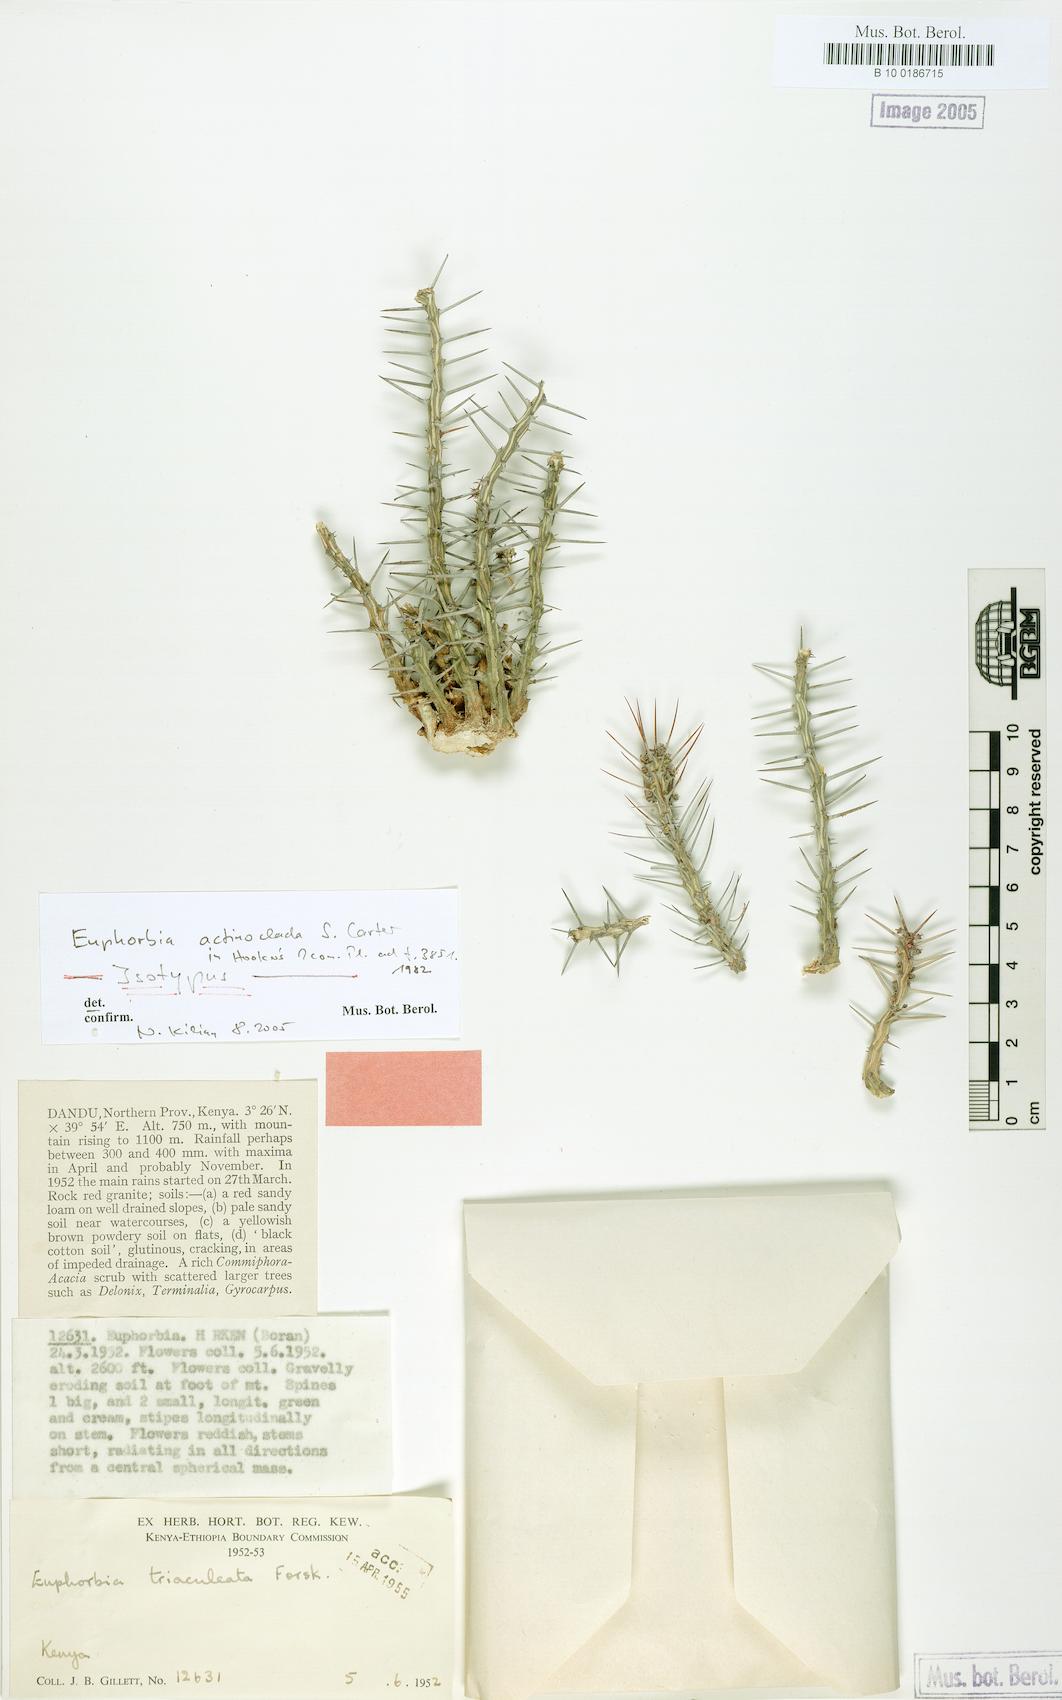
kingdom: Plantae
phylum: Tracheophyta
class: Magnoliopsida
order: Malpighiales
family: Euphorbiaceae
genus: Euphorbia
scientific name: Euphorbia actinoclada
